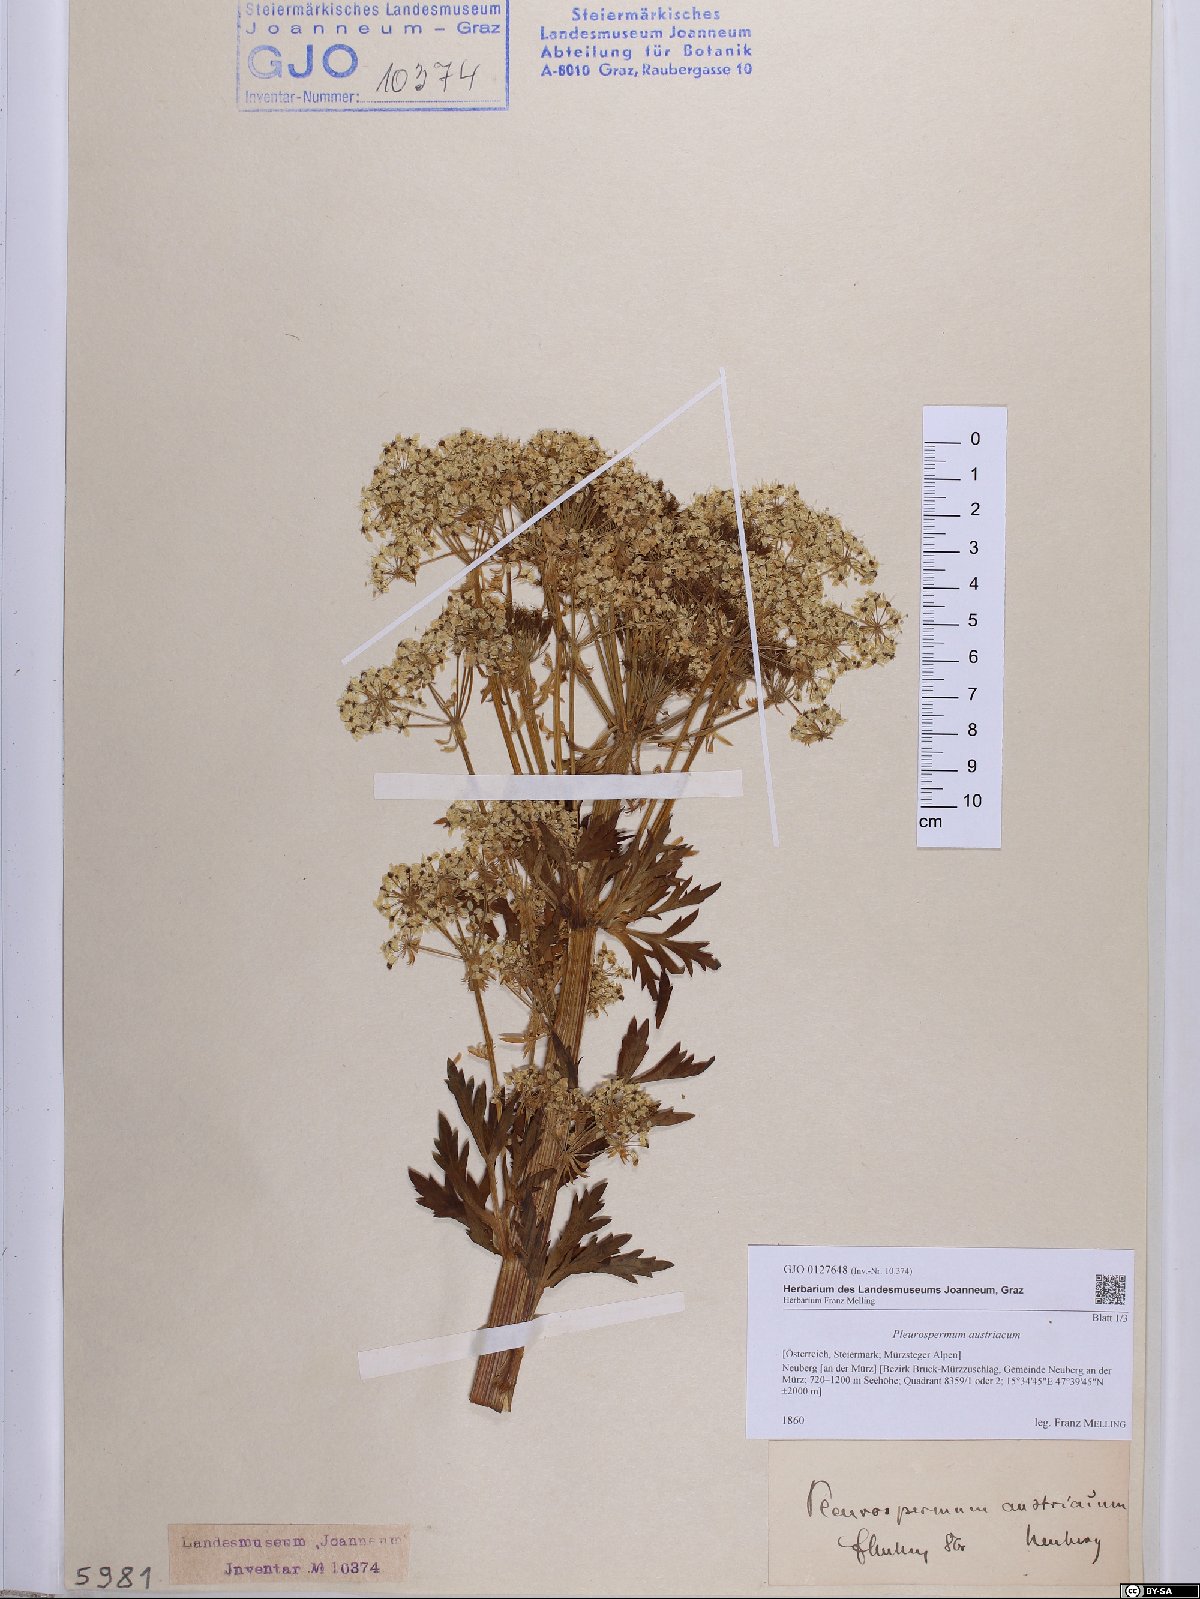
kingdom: Plantae
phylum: Tracheophyta
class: Magnoliopsida
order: Apiales
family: Apiaceae
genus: Pleurospermum
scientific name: Pleurospermum austriacum
